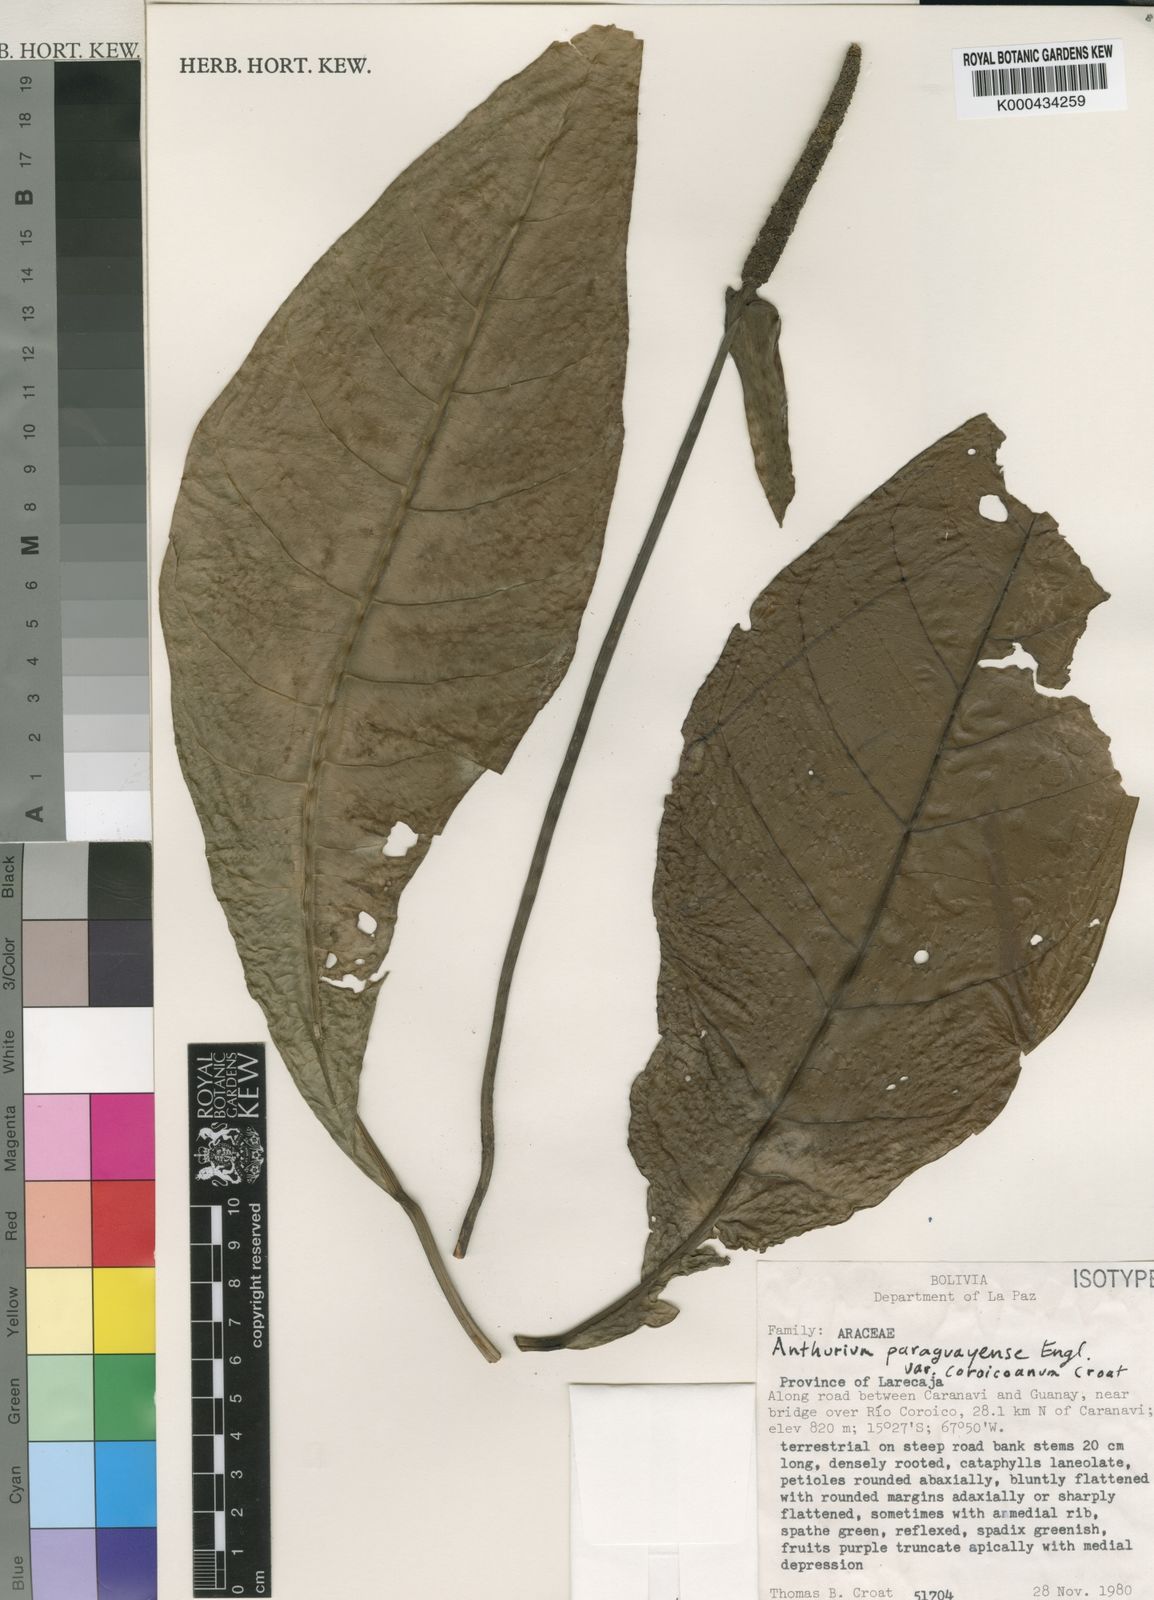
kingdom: Plantae
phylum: Tracheophyta
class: Liliopsida
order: Alismatales
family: Araceae
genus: Anthurium
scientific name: Anthurium paraguayense
